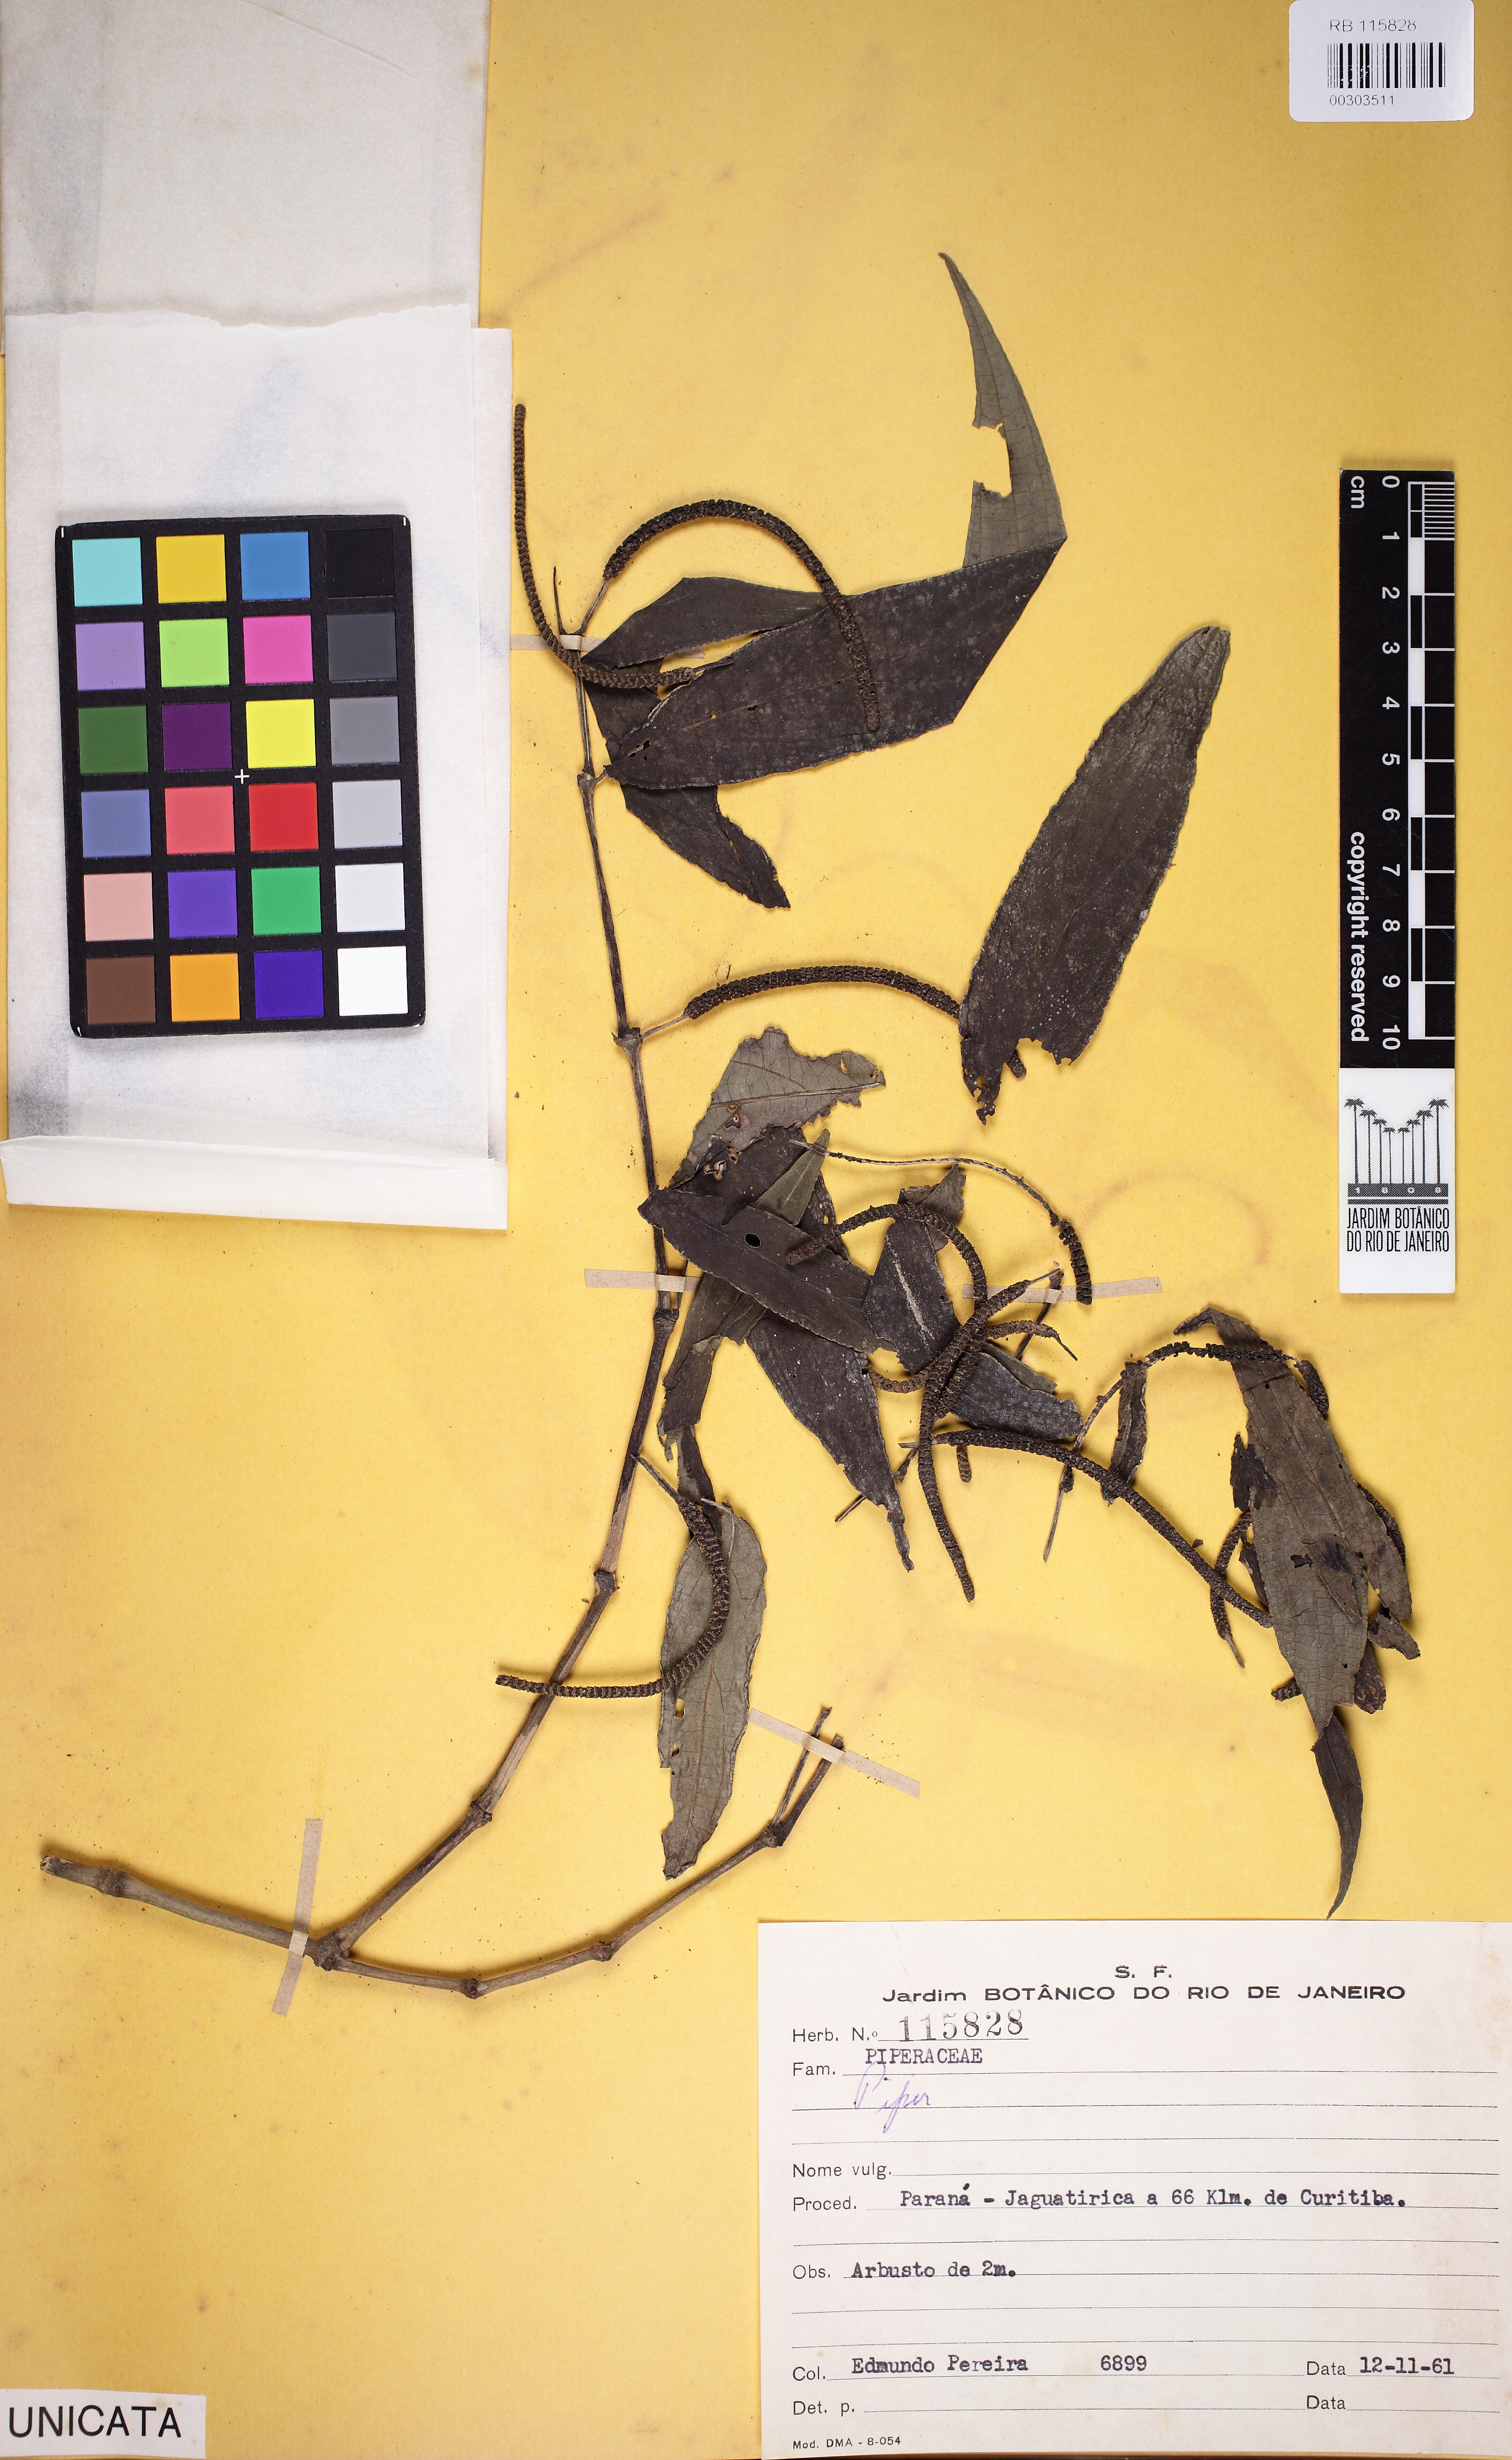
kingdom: Plantae
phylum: Tracheophyta
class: Magnoliopsida
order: Piperales
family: Piperaceae
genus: Peperomia
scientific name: Peperomia
